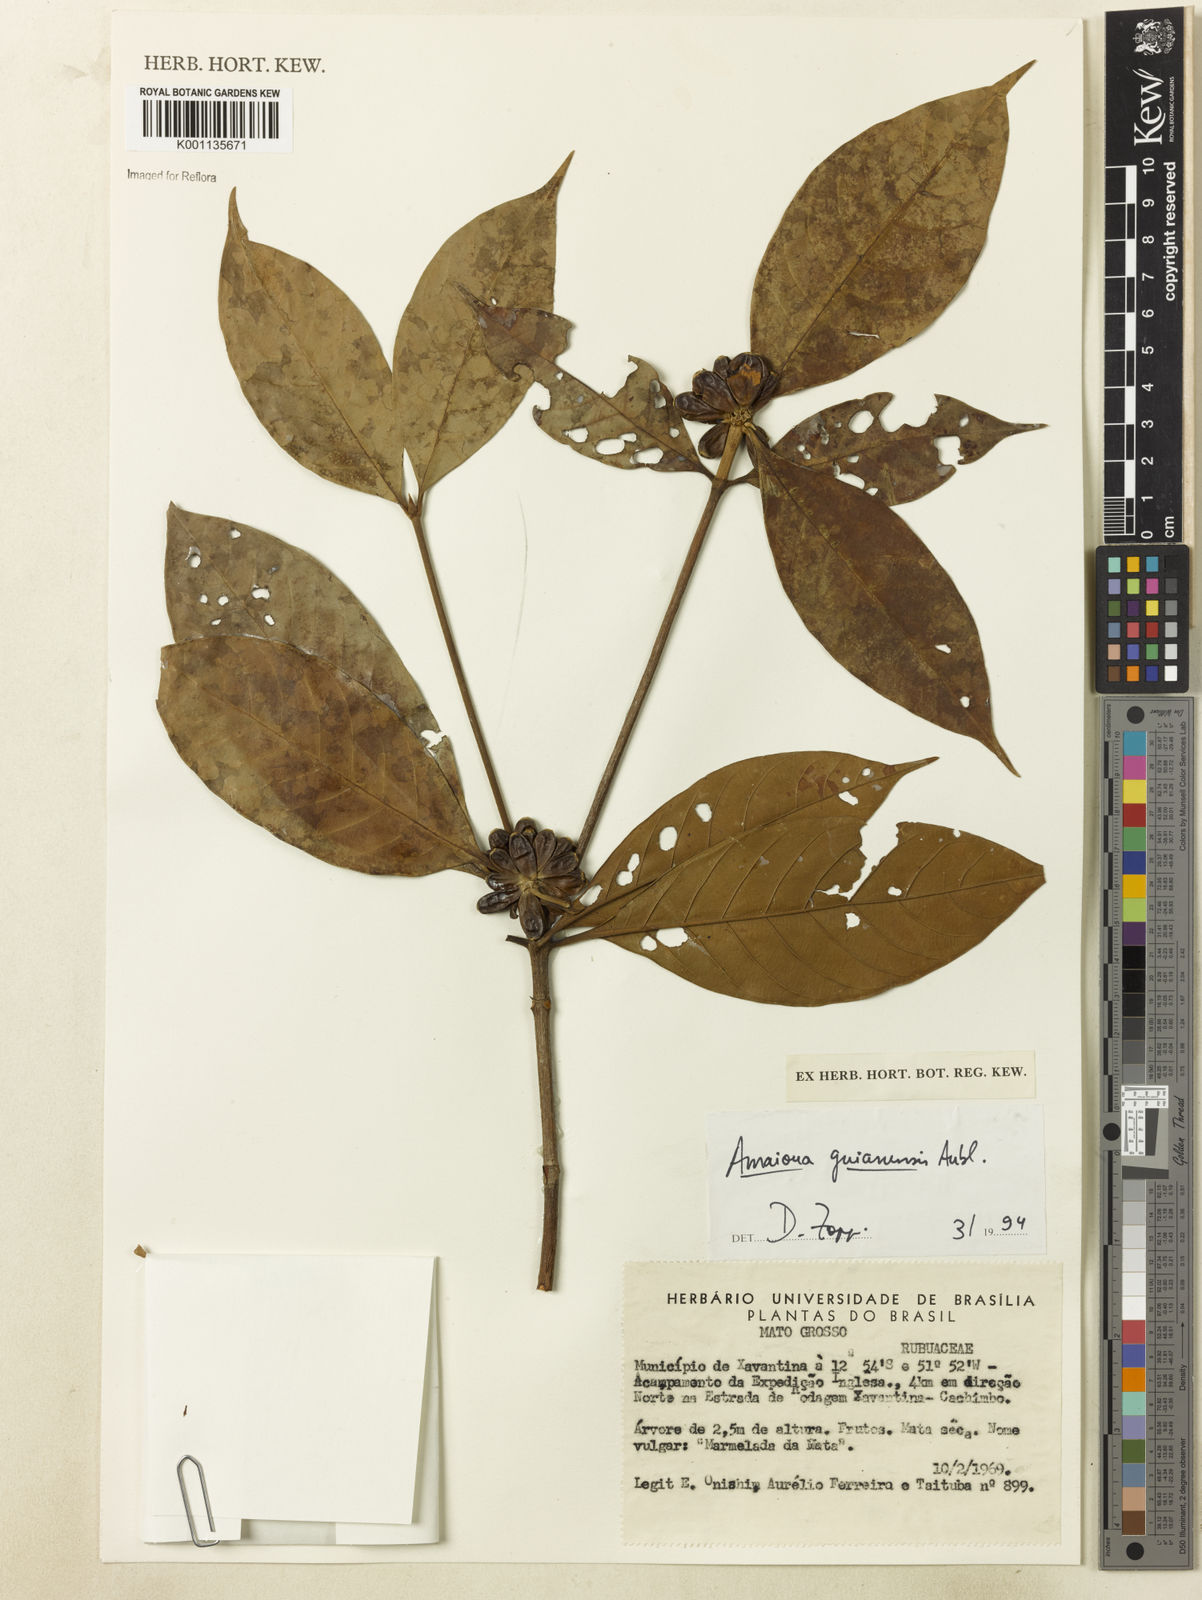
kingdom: Plantae
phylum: Tracheophyta
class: Magnoliopsida
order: Gentianales
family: Rubiaceae
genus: Amaioua
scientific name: Amaioua guianensis
